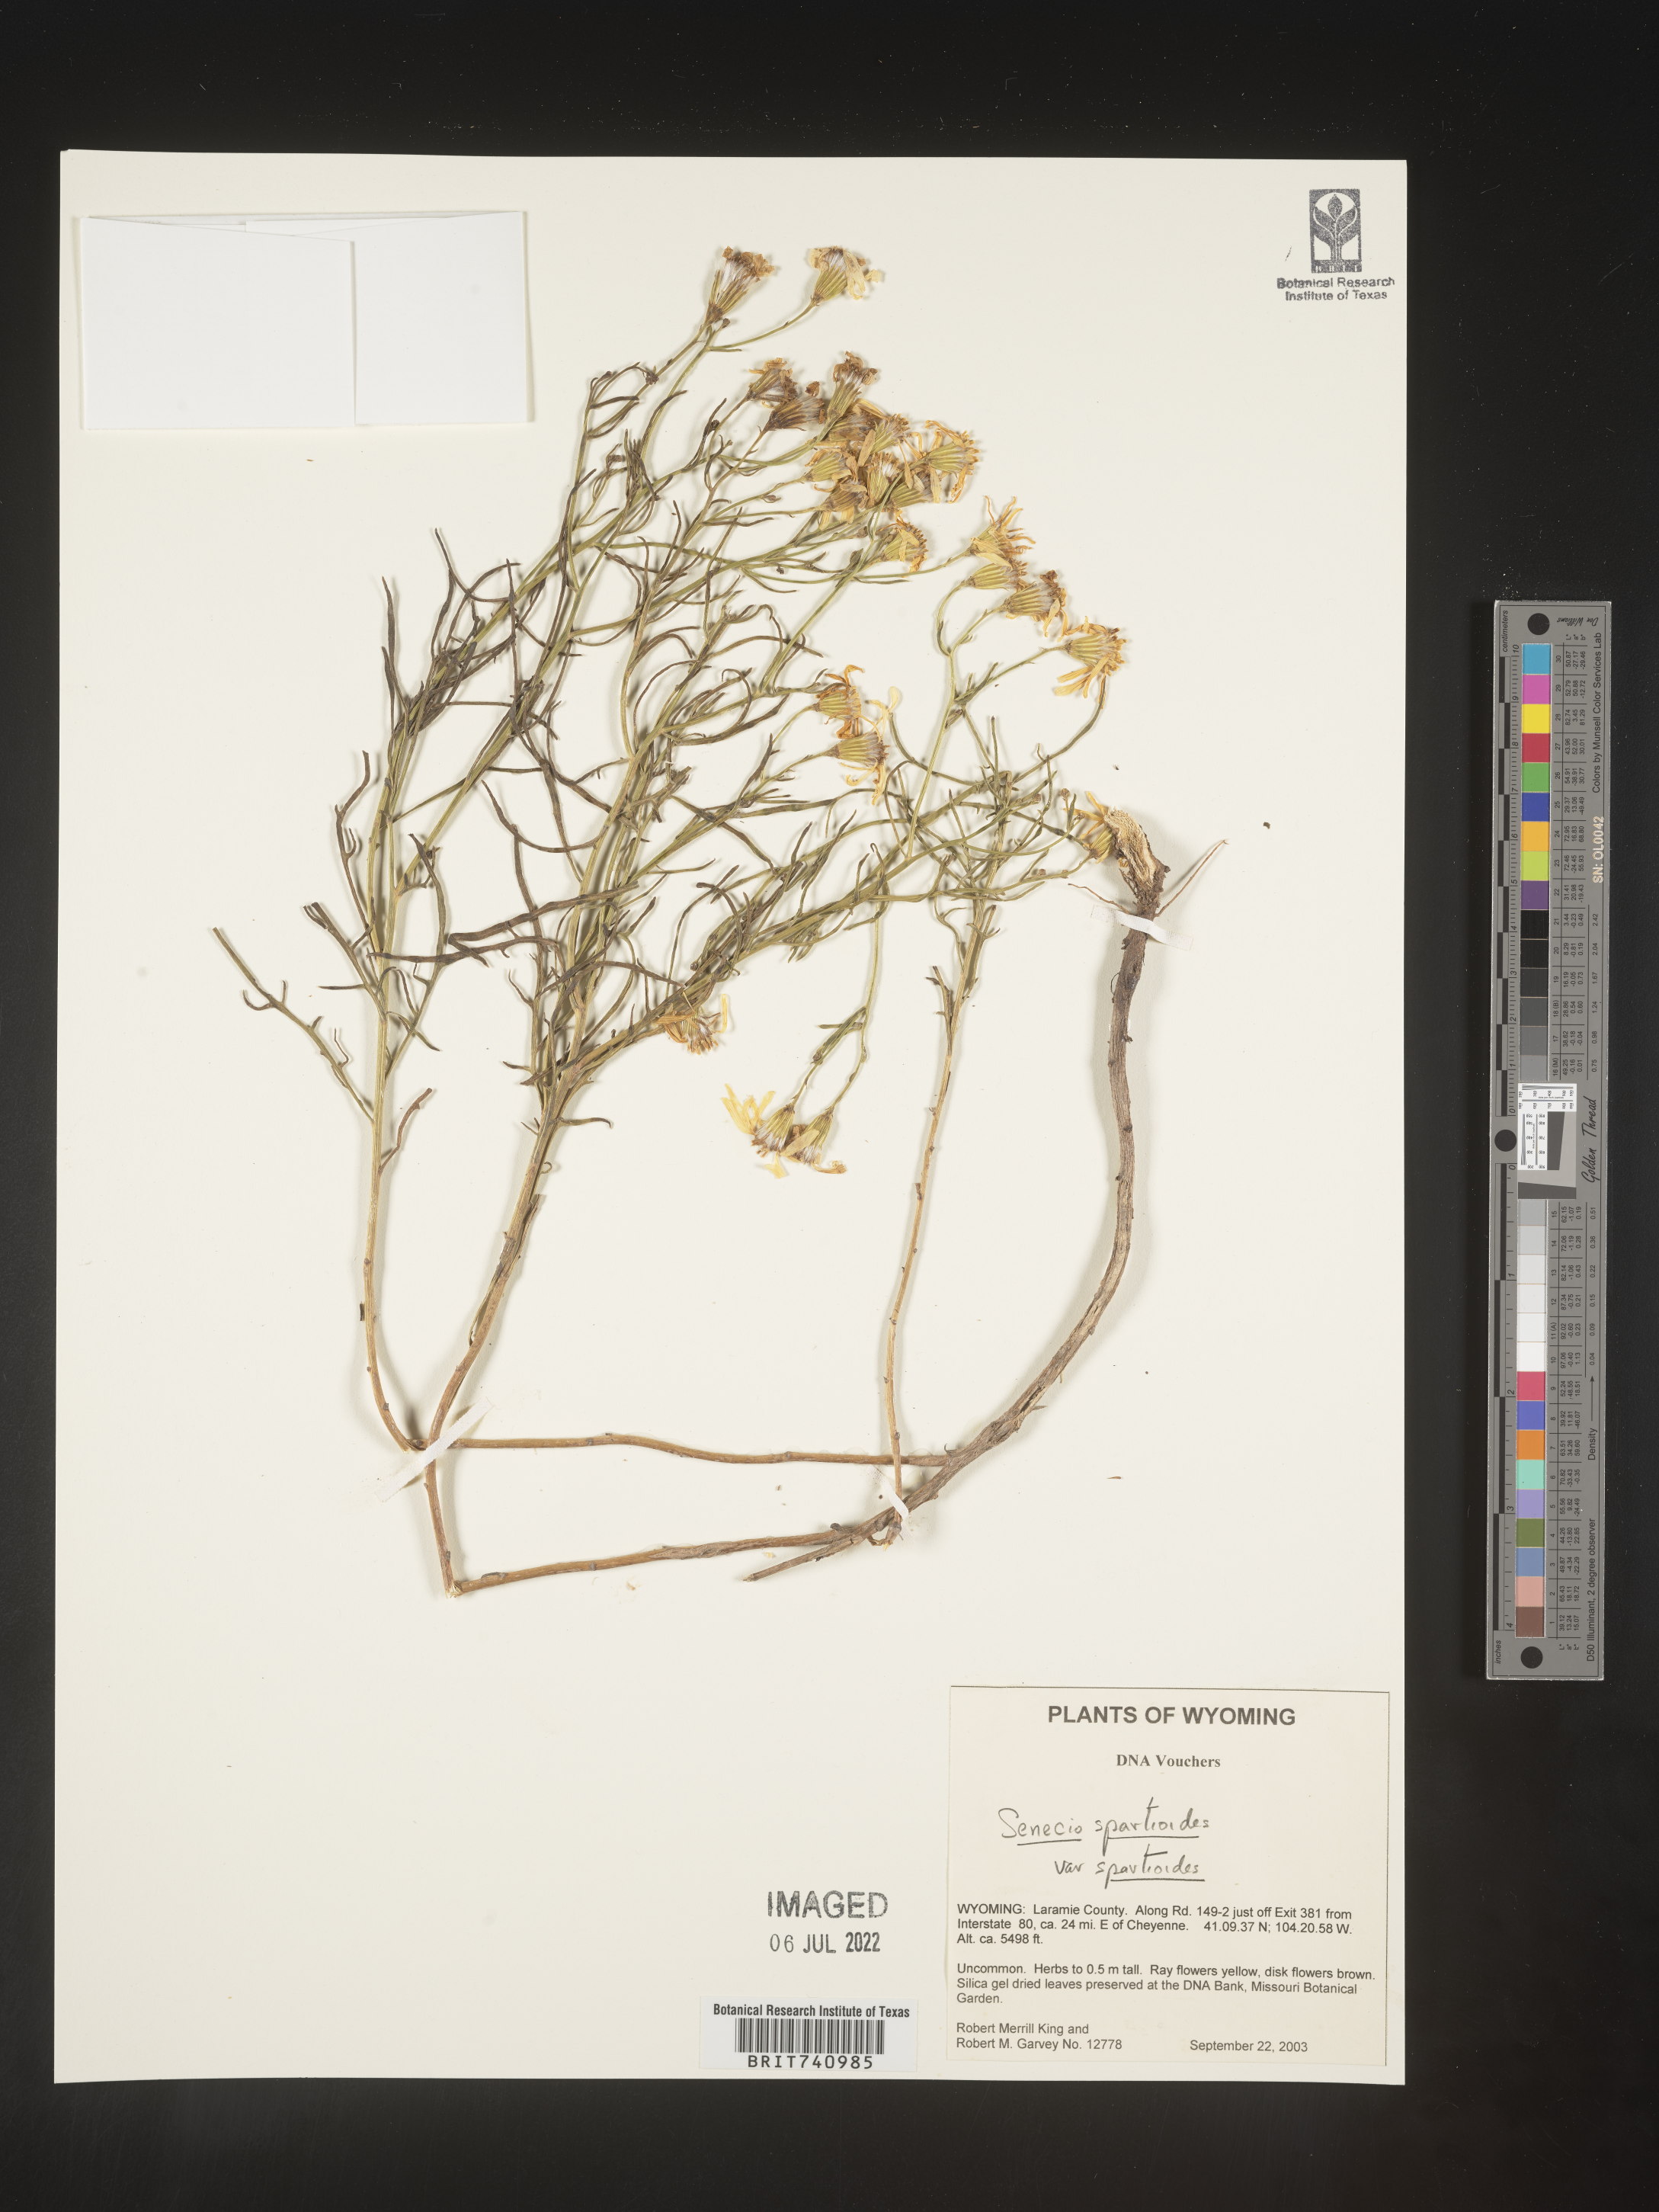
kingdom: Plantae
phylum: Tracheophyta
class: Magnoliopsida
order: Asterales
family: Asteraceae
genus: Senecio
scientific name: Senecio spartioides
